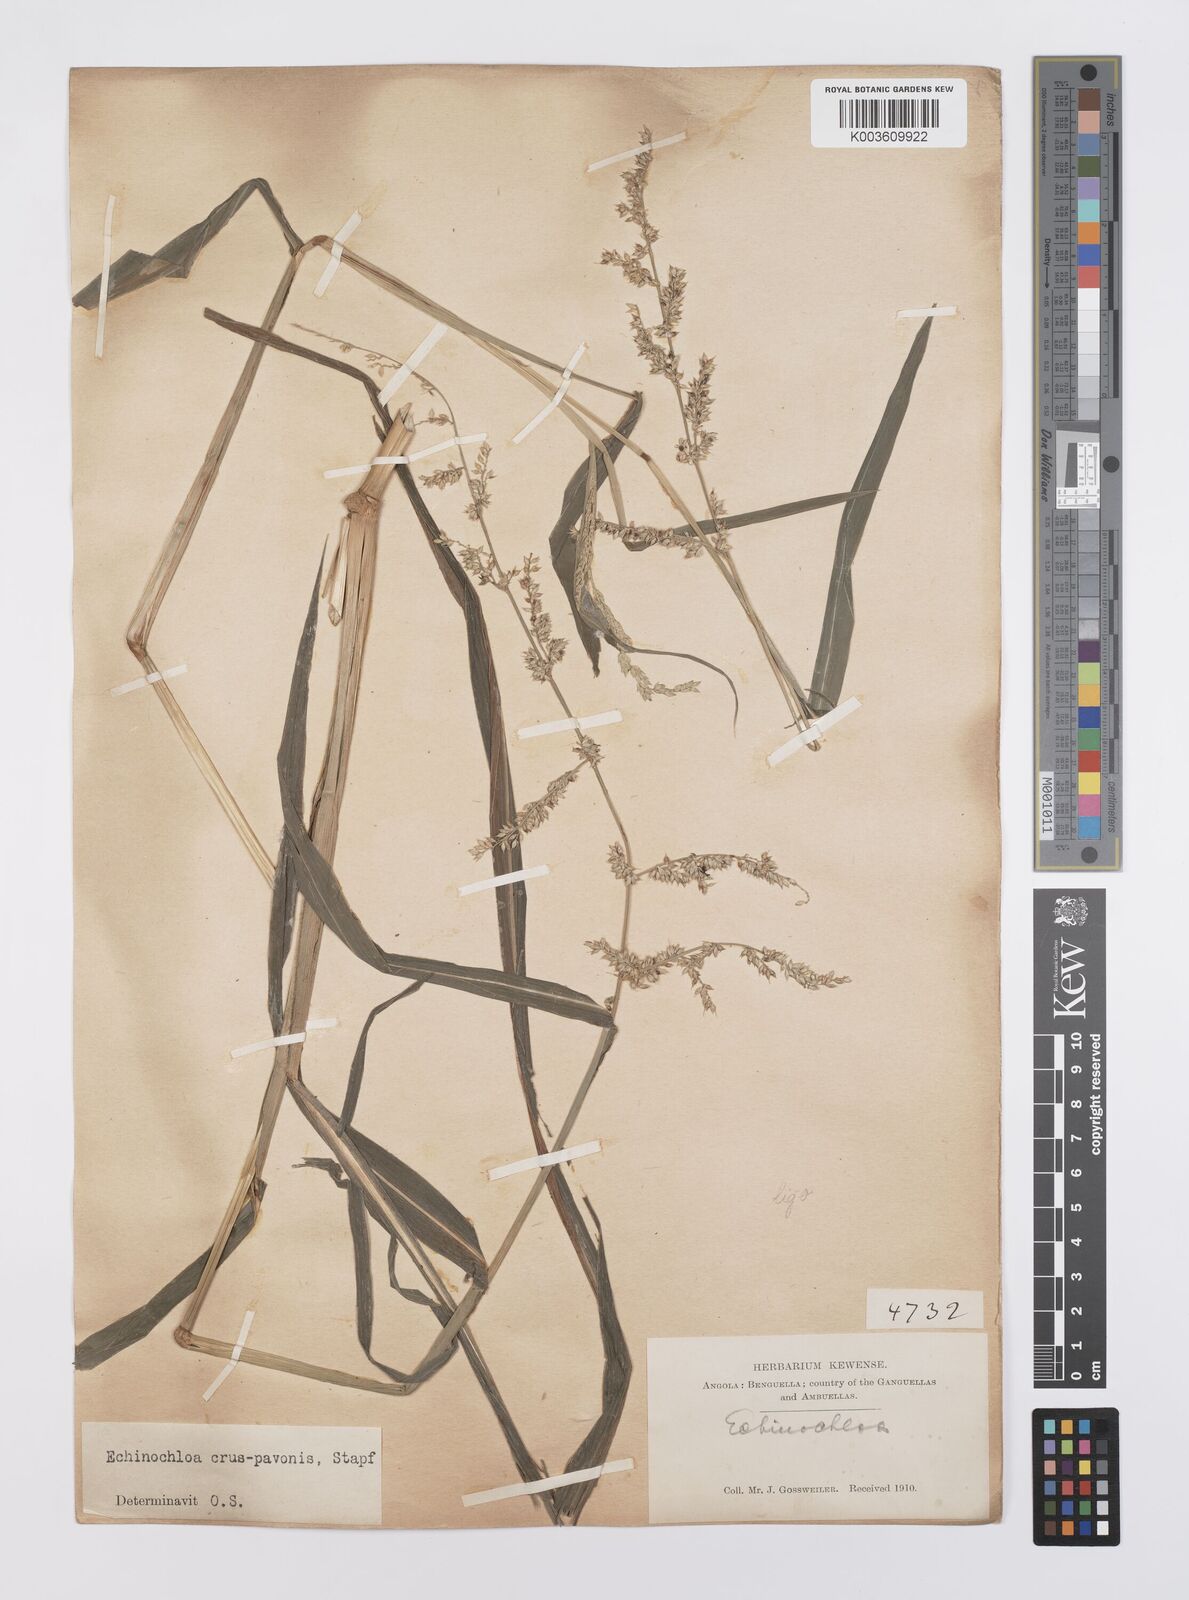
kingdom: Plantae
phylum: Tracheophyta
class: Liliopsida
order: Poales
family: Poaceae
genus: Echinochloa
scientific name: Echinochloa crus-pavonis
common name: Gulf cockspur grass
